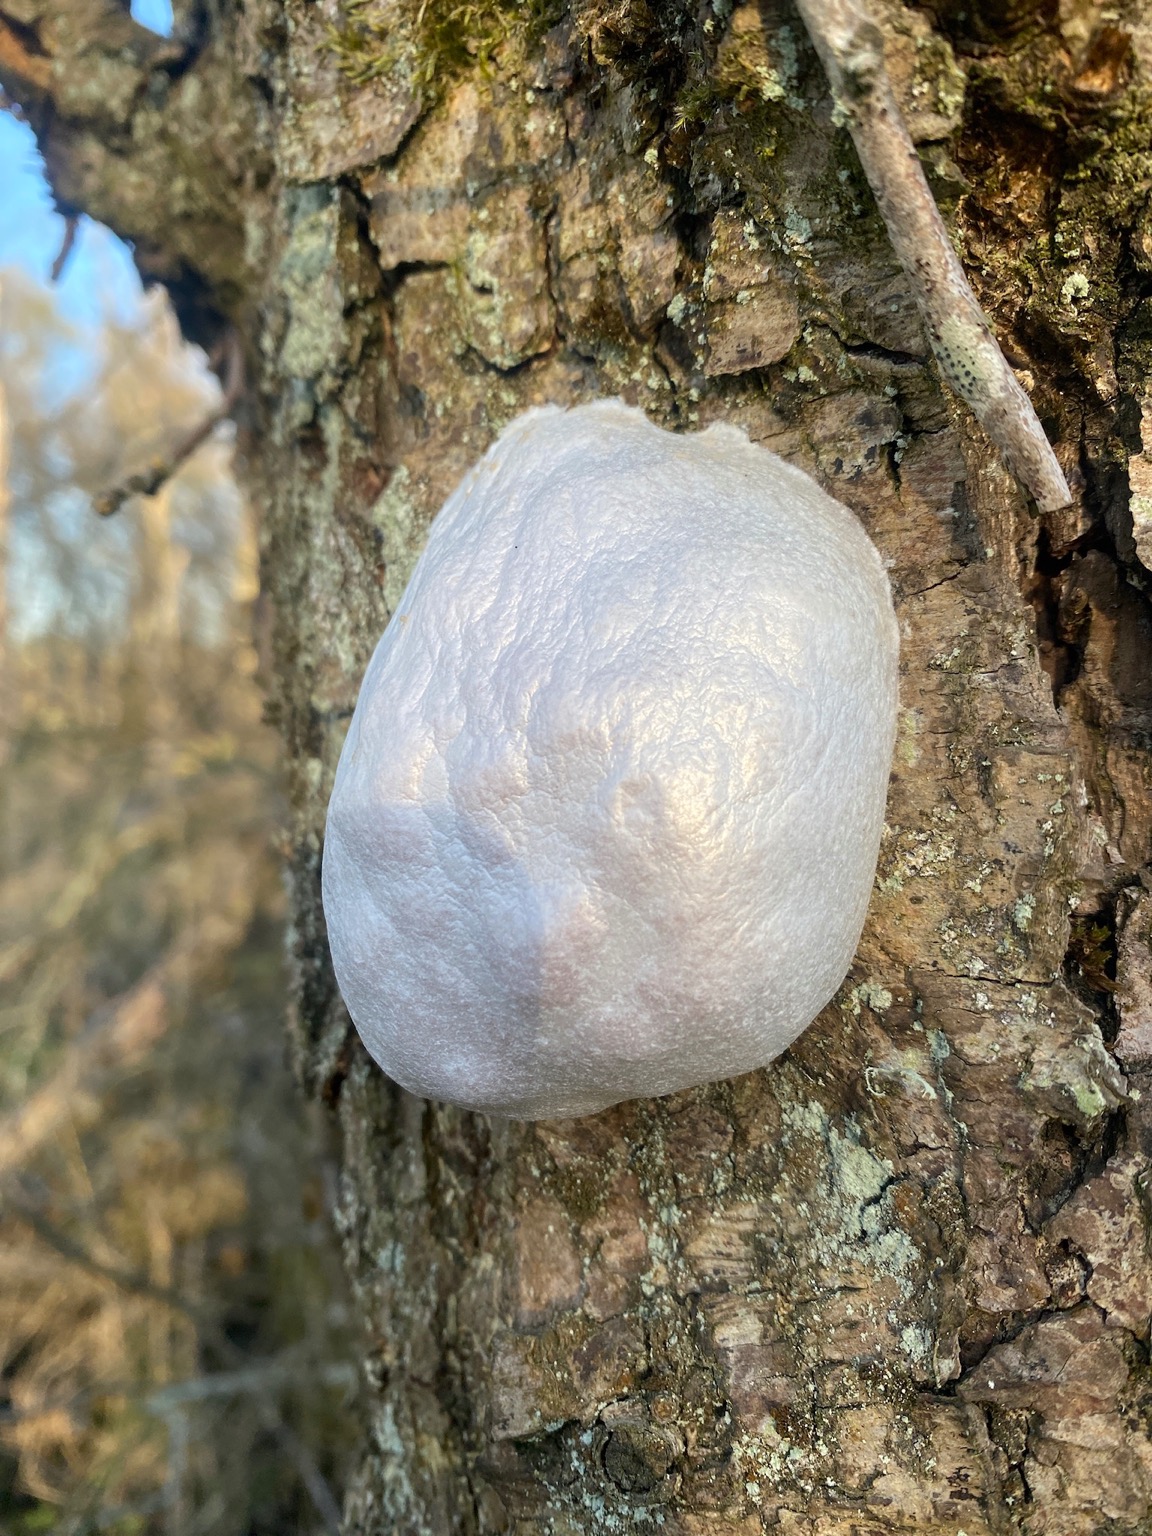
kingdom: Protozoa
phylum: Mycetozoa
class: Myxomycetes
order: Cribrariales
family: Tubiferaceae
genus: Reticularia
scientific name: Reticularia lycoperdon
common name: Skinnende støvpude
